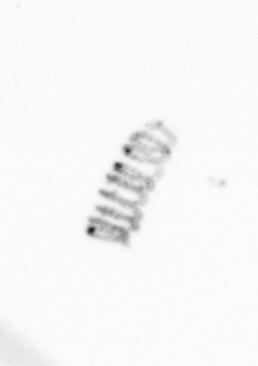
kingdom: Chromista
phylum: Ochrophyta
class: Bacillariophyceae
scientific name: Bacillariophyceae
